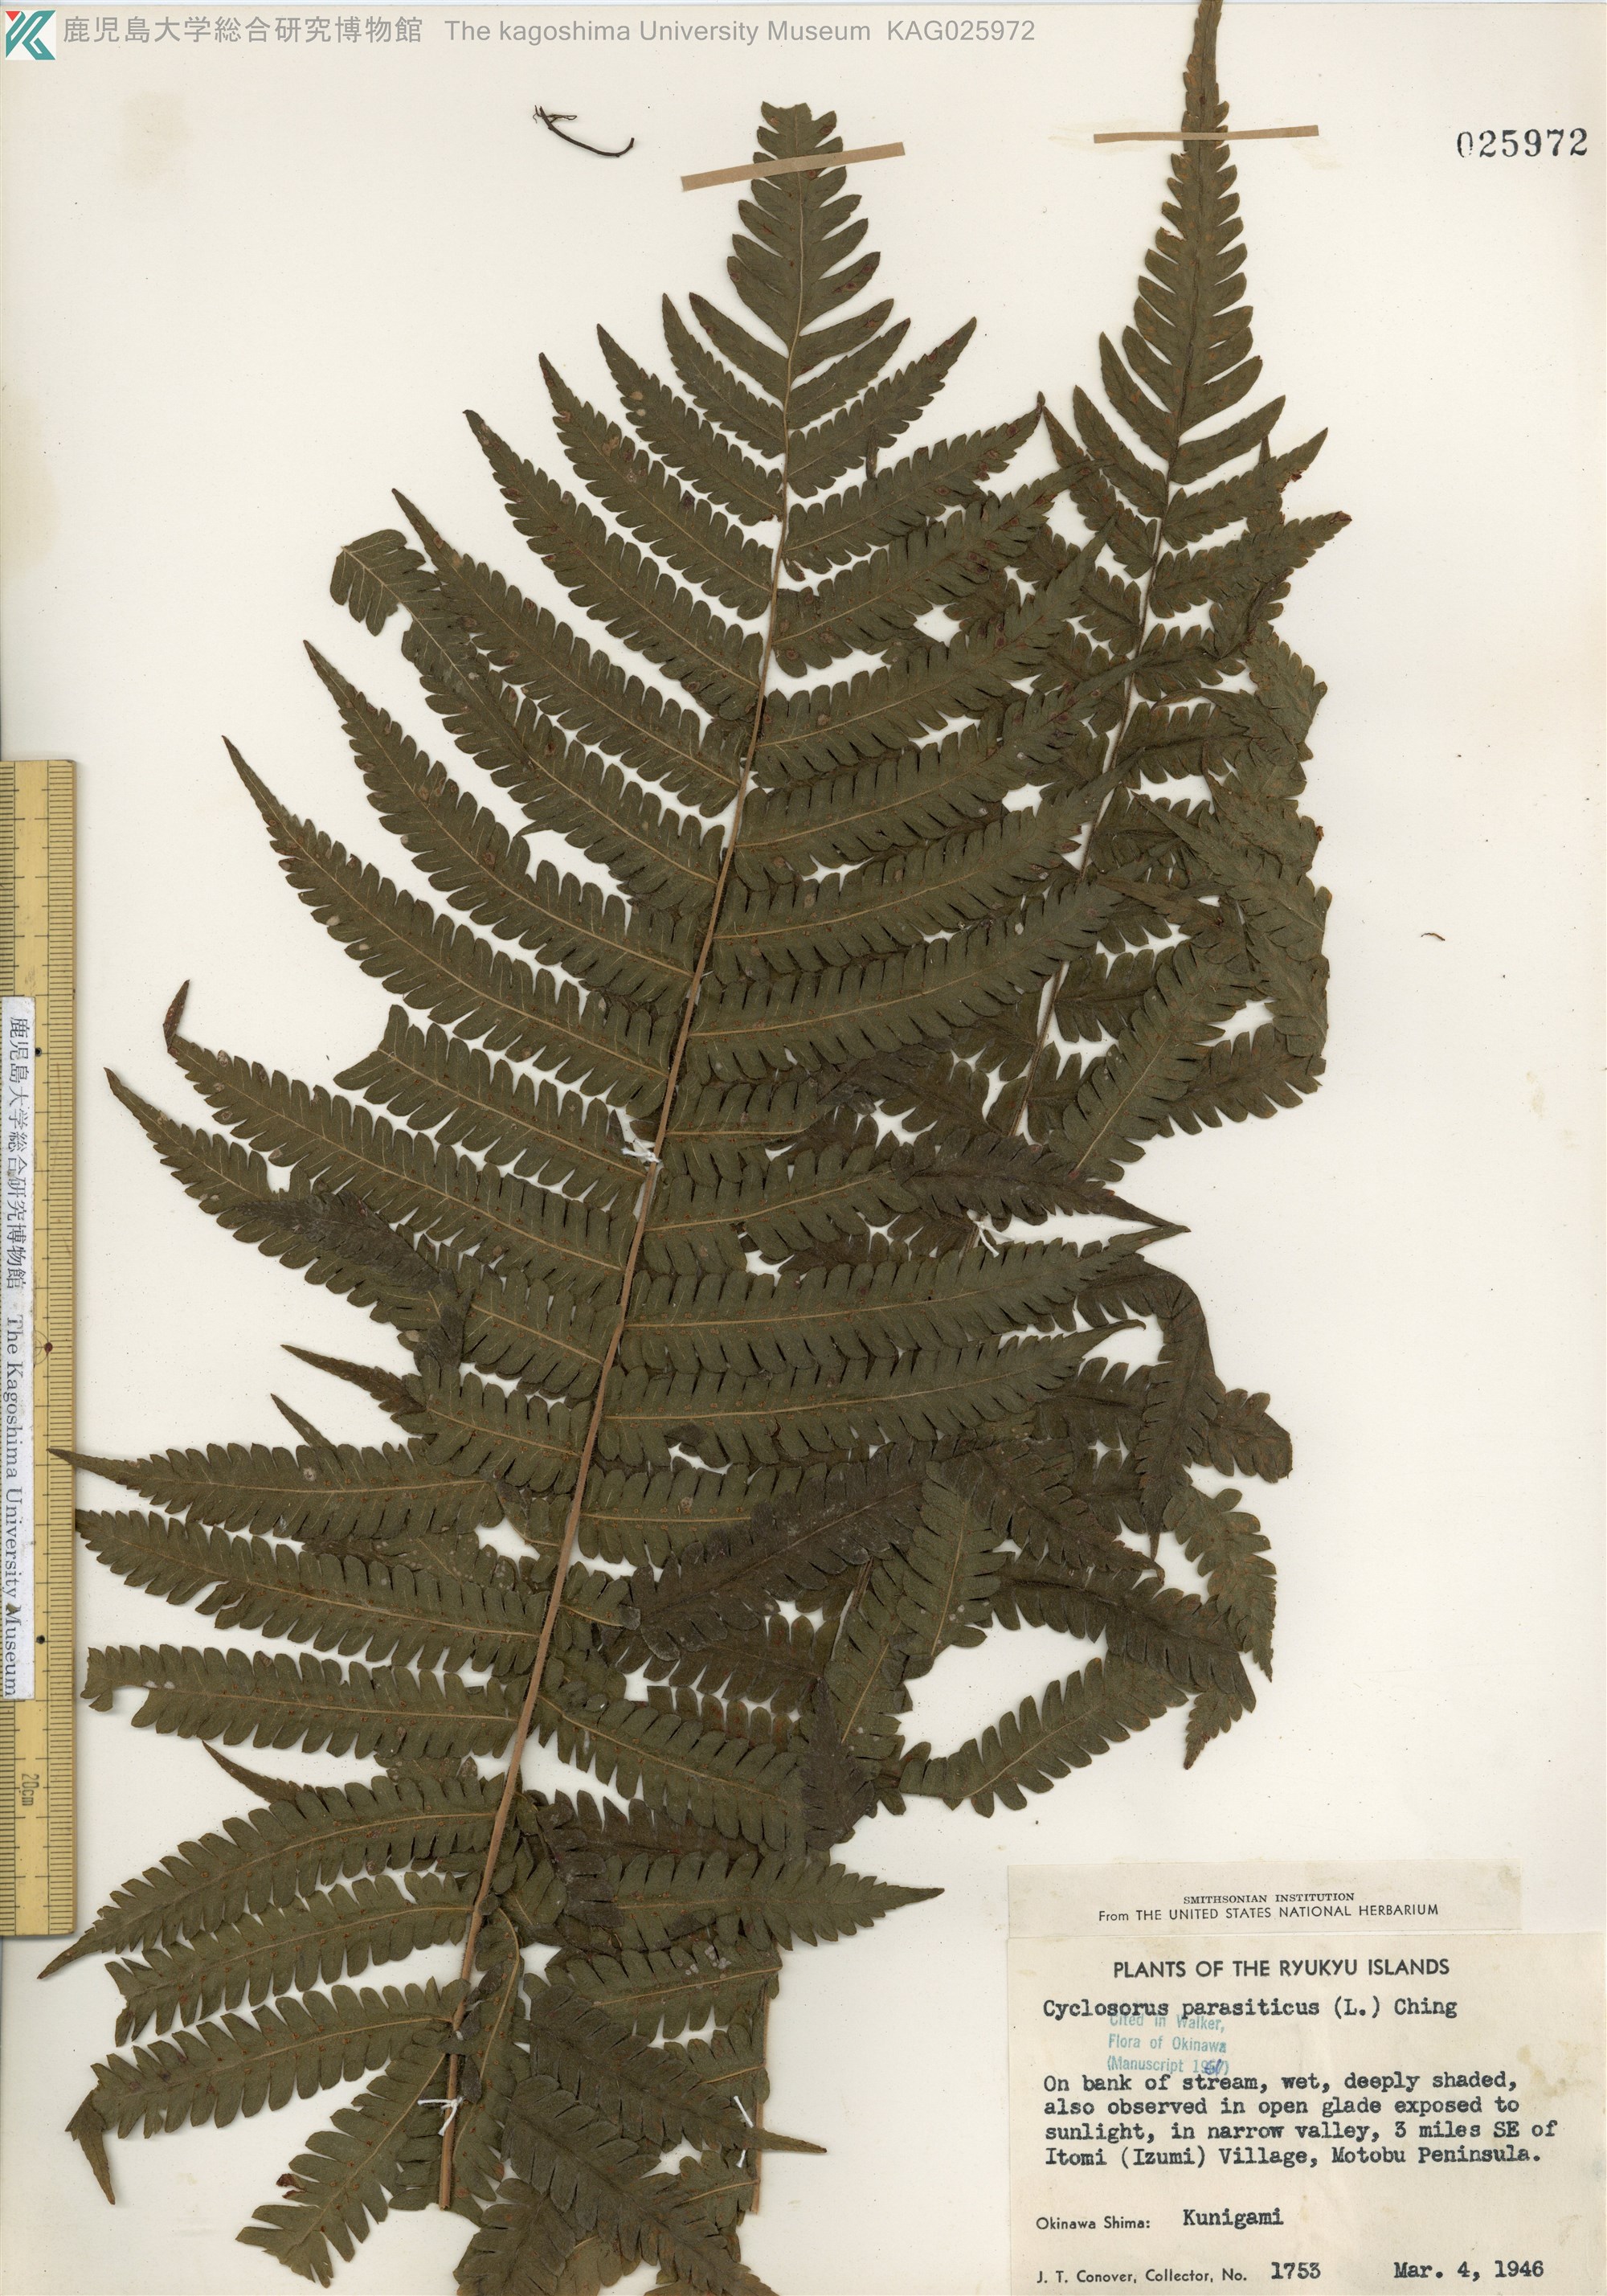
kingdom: Plantae
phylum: Tracheophyta
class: Polypodiopsida
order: Polypodiales
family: Thelypteridaceae
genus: Christella
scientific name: Christella parasitica
